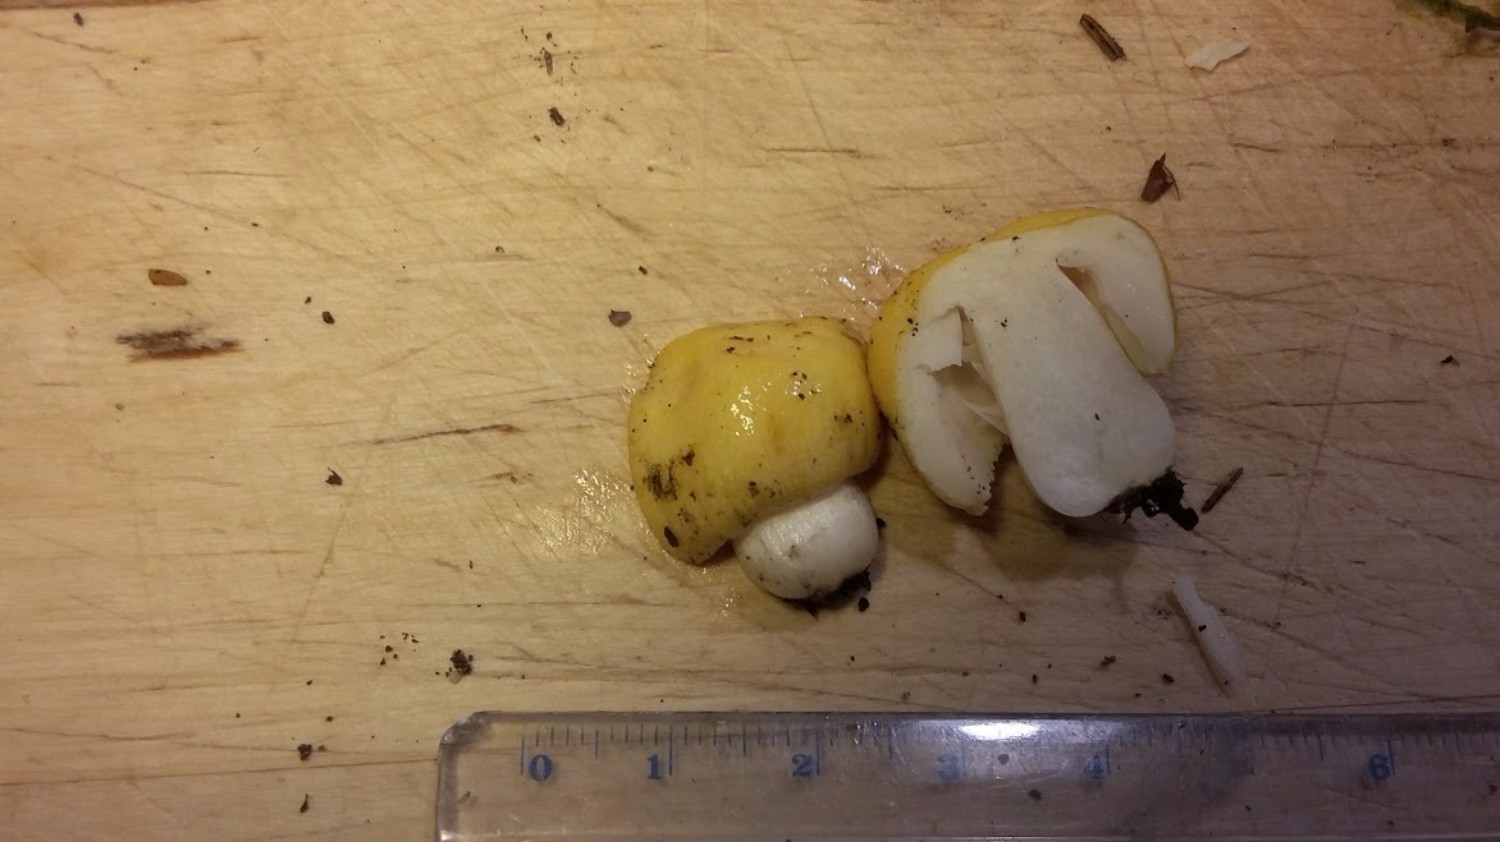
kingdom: Fungi
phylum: Basidiomycota
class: Agaricomycetes
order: Russulales
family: Russulaceae
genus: Russula
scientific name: Russula solaris
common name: sol-skørhat
